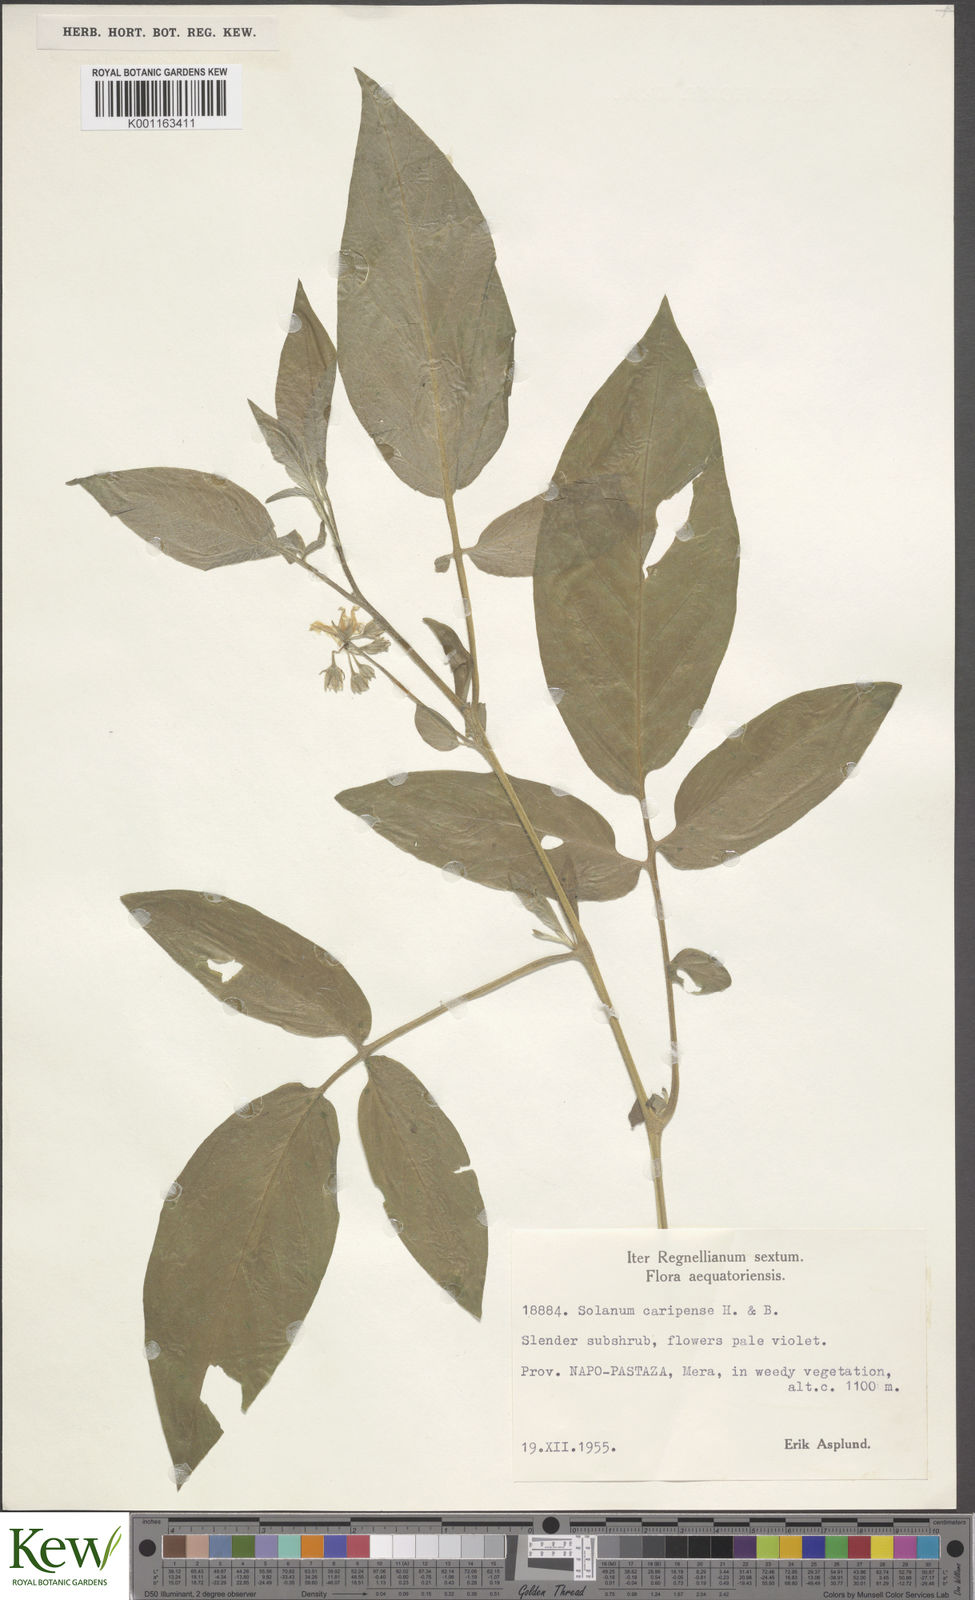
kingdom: Plantae
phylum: Tracheophyta
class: Magnoliopsida
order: Solanales
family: Solanaceae
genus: Solanum
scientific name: Solanum caripense
